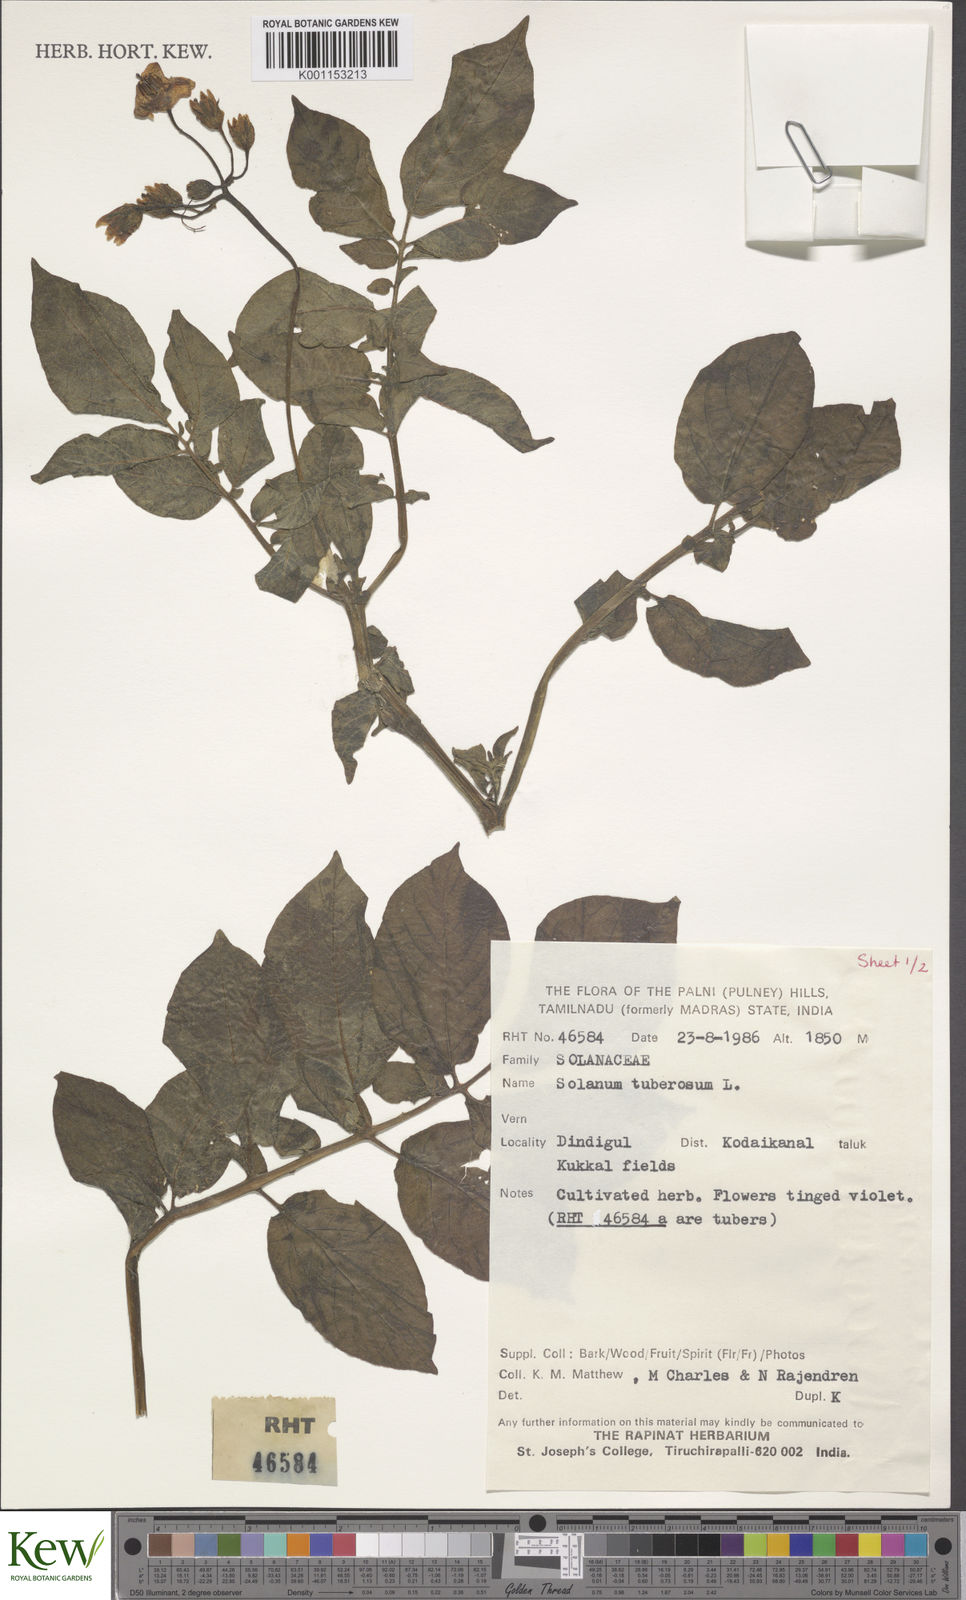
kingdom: Plantae
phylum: Tracheophyta
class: Magnoliopsida
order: Solanales
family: Solanaceae
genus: Solanum
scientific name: Solanum tuberosum
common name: Potato
